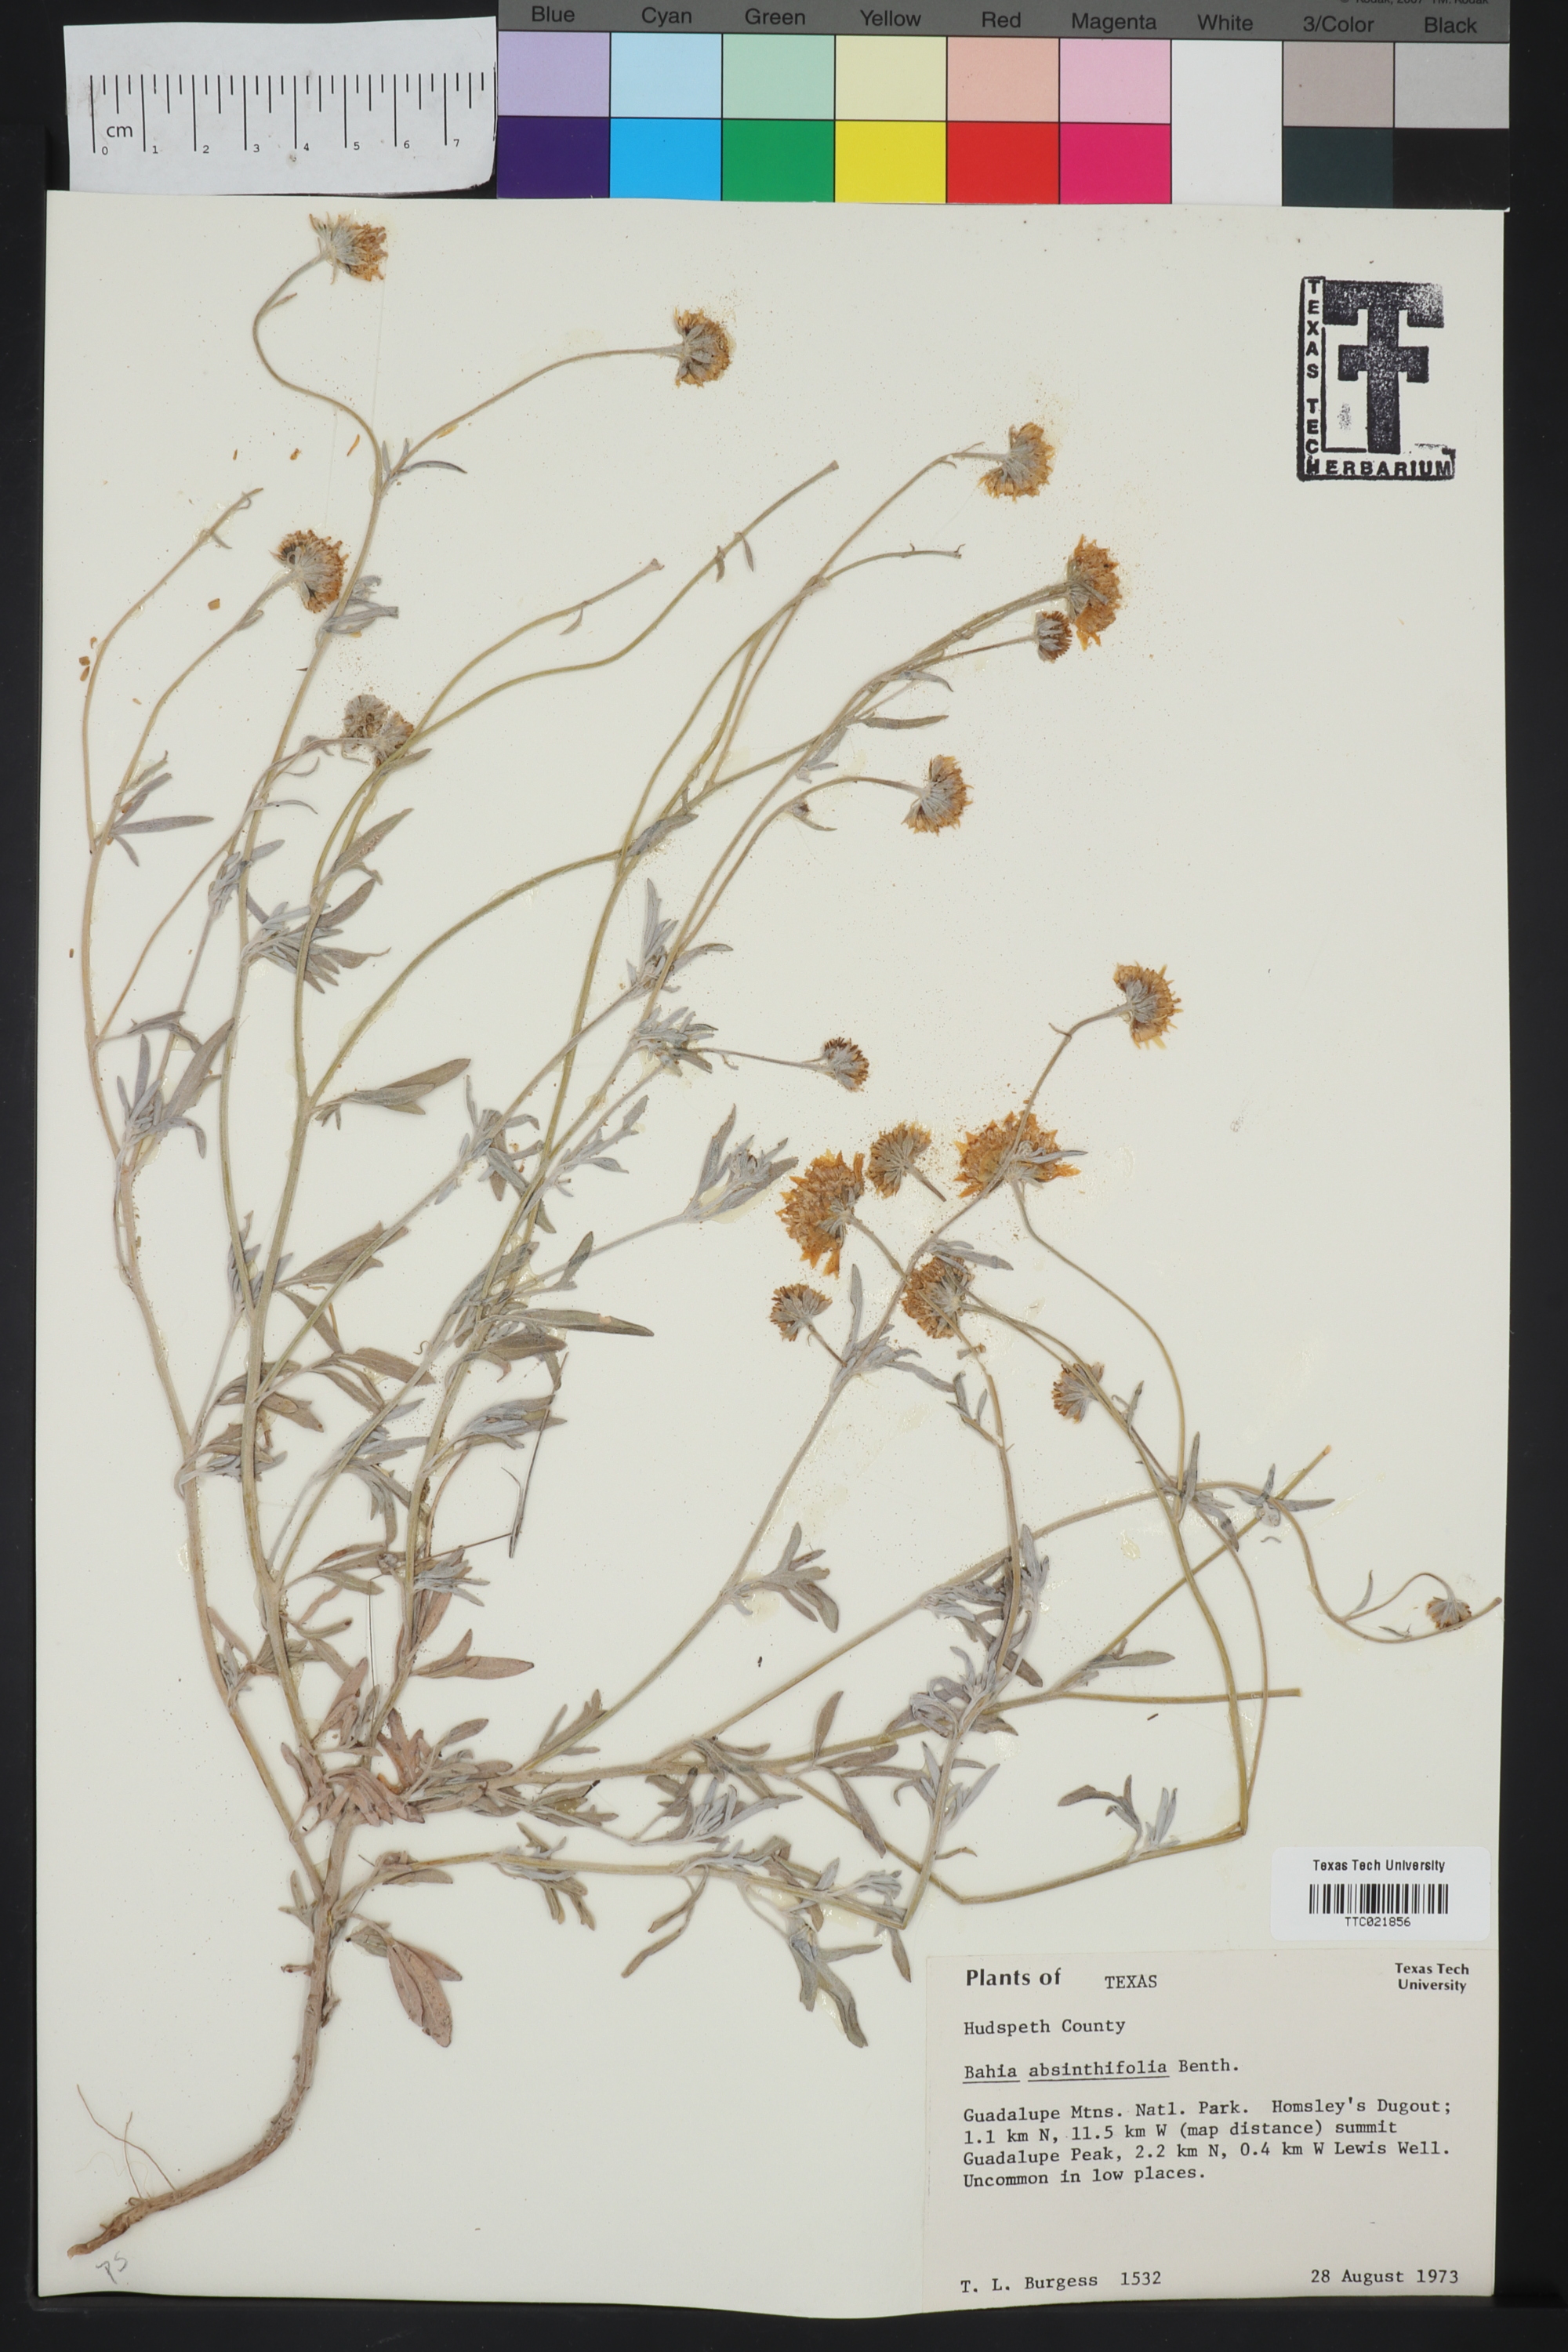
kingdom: Plantae
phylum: Tracheophyta
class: Magnoliopsida
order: Asterales
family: Asteraceae
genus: Picradeniopsis
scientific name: Picradeniopsis absinthifolia
